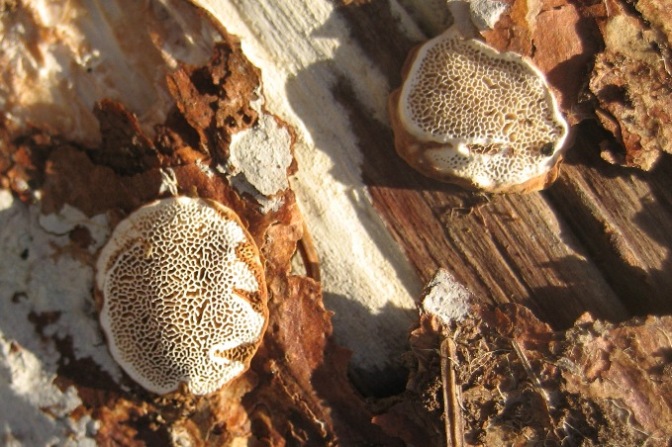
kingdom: Fungi
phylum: Basidiomycota
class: Agaricomycetes
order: Russulales
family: Bondarzewiaceae
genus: Heterobasidion
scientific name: Heterobasidion annosum
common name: almindelig rodfordærver
